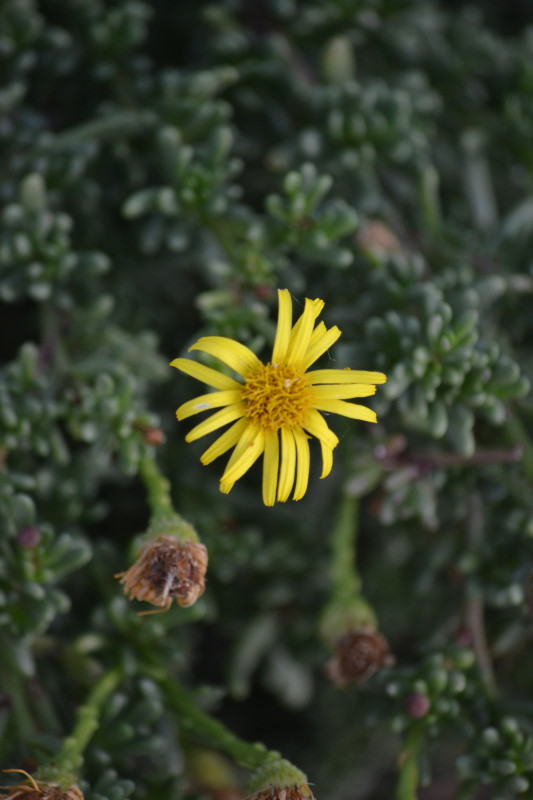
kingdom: Plantae
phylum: Tracheophyta
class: Magnoliopsida
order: Asterales
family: Asteraceae
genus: Limbarda
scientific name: Limbarda crithmoides
